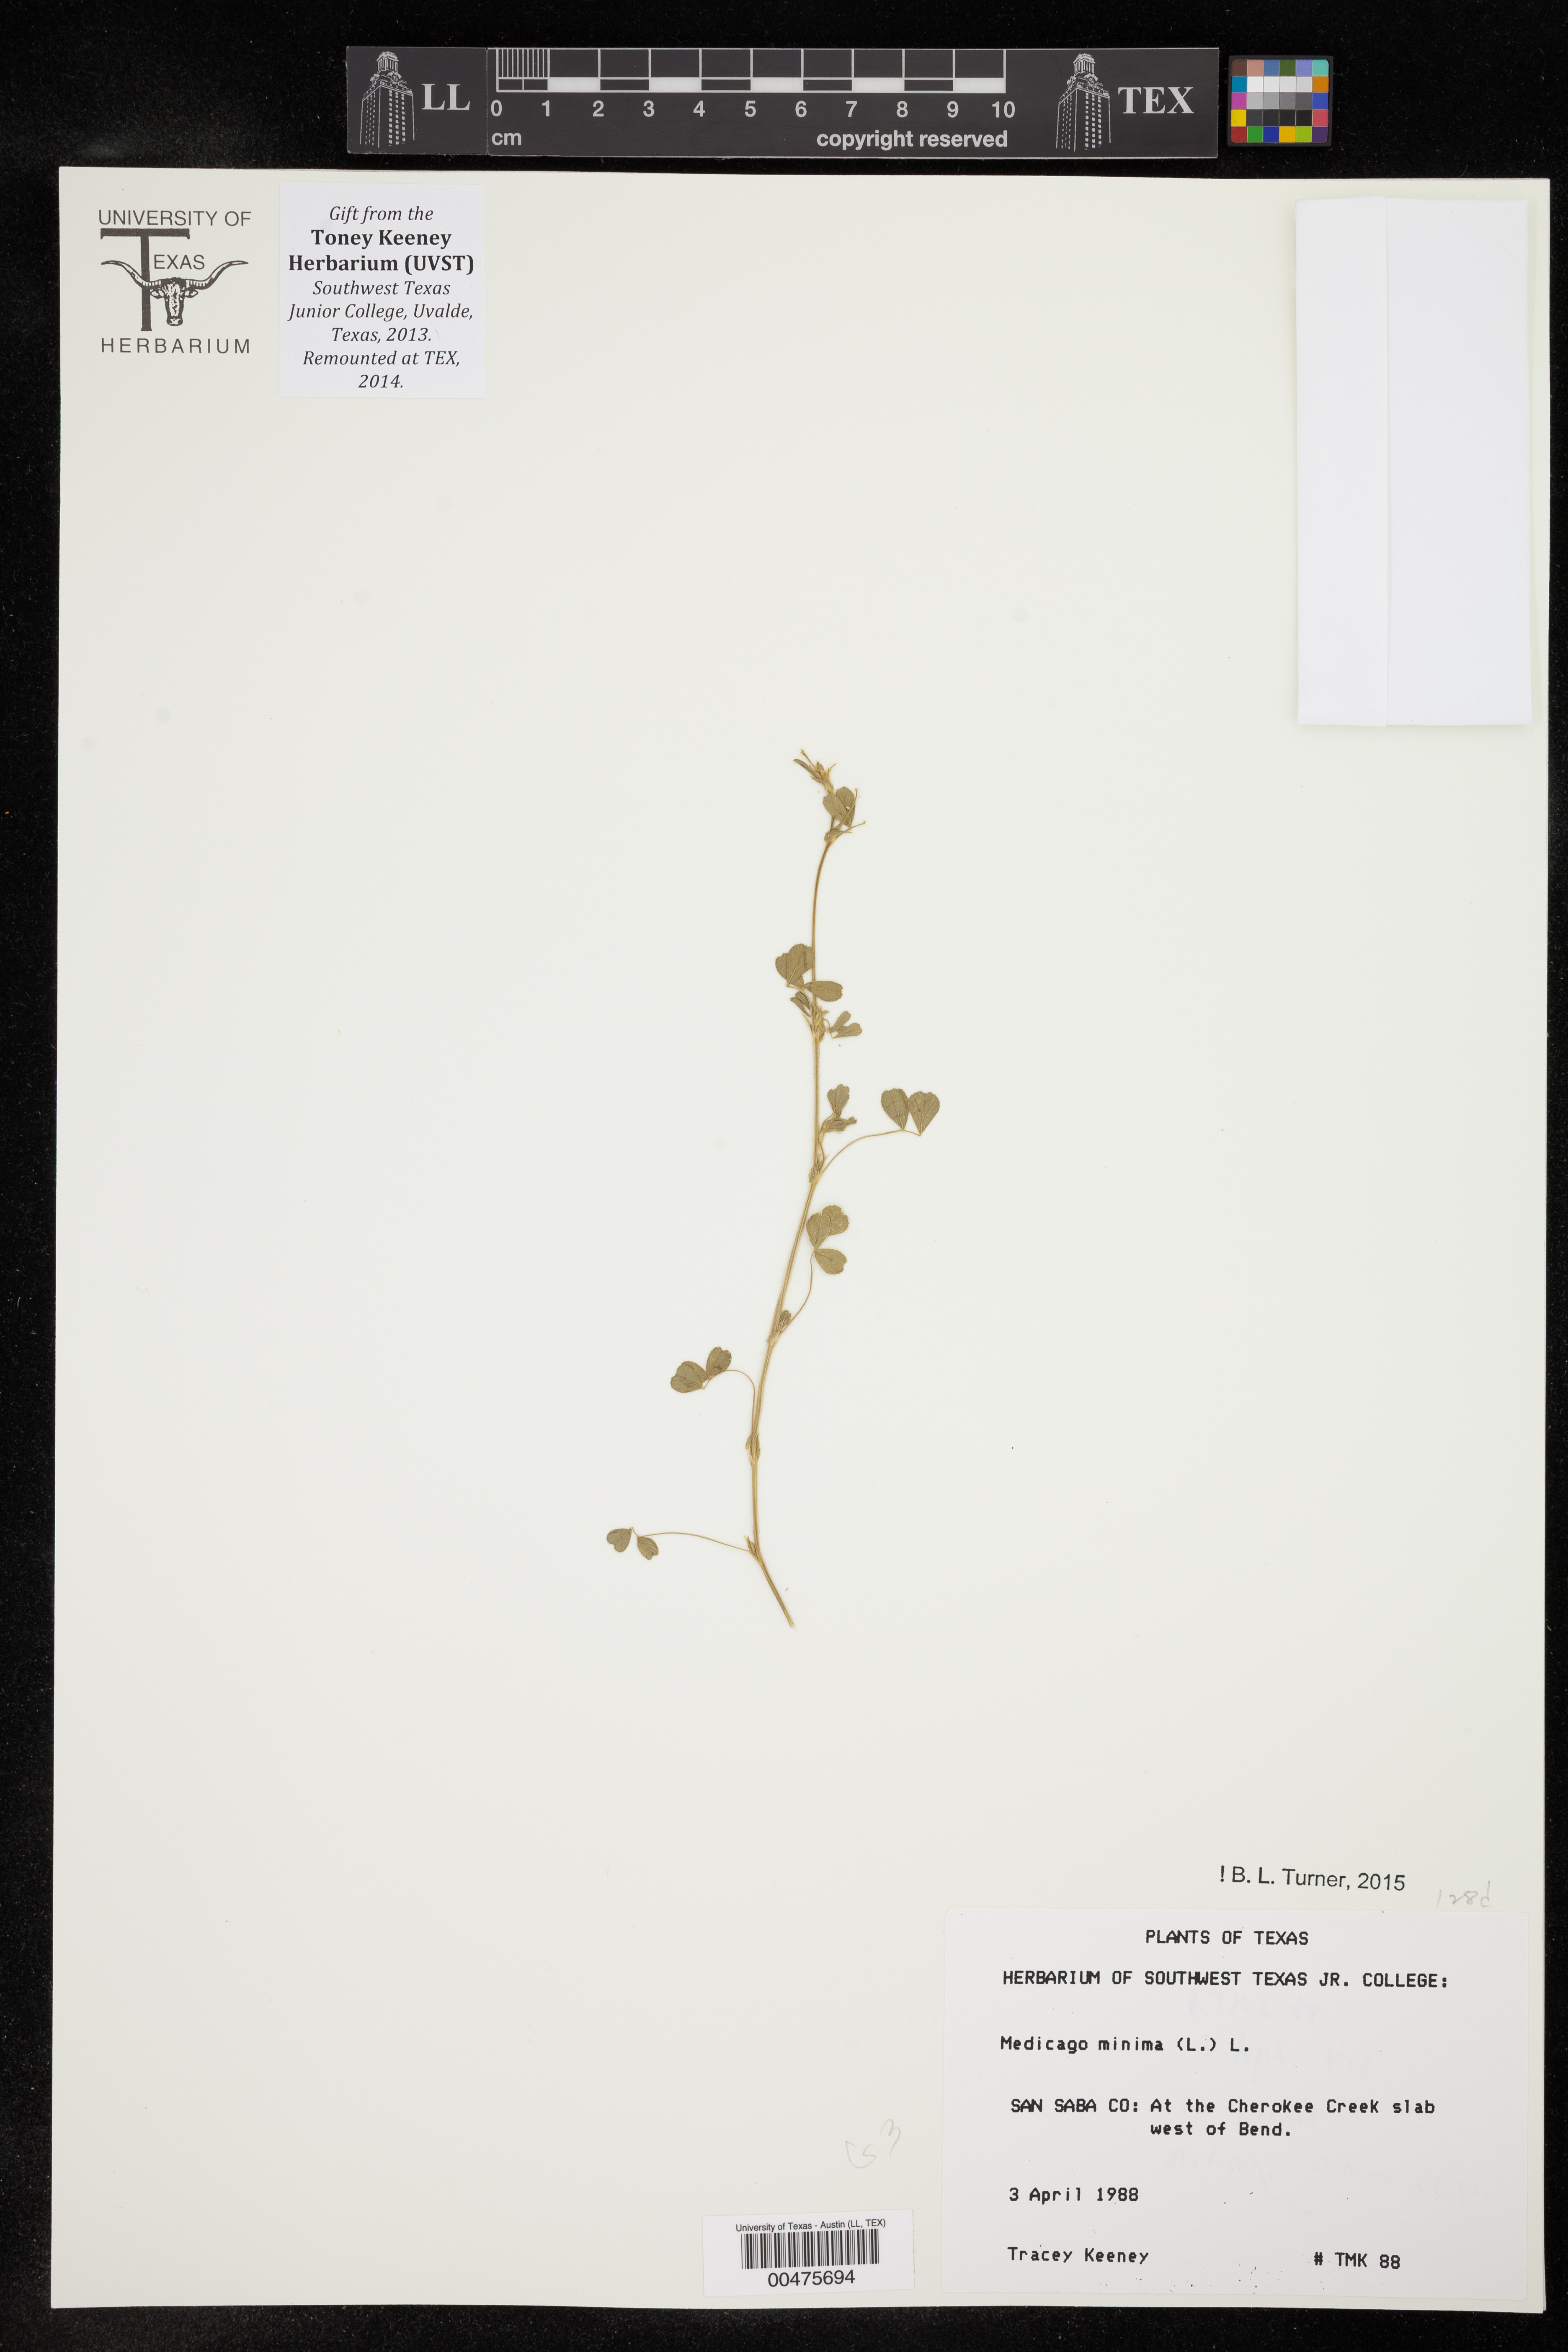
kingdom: Plantae
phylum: Tracheophyta
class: Magnoliopsida
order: Fabales
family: Fabaceae
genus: Medicago
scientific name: Medicago minima
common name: Little bur-clover
